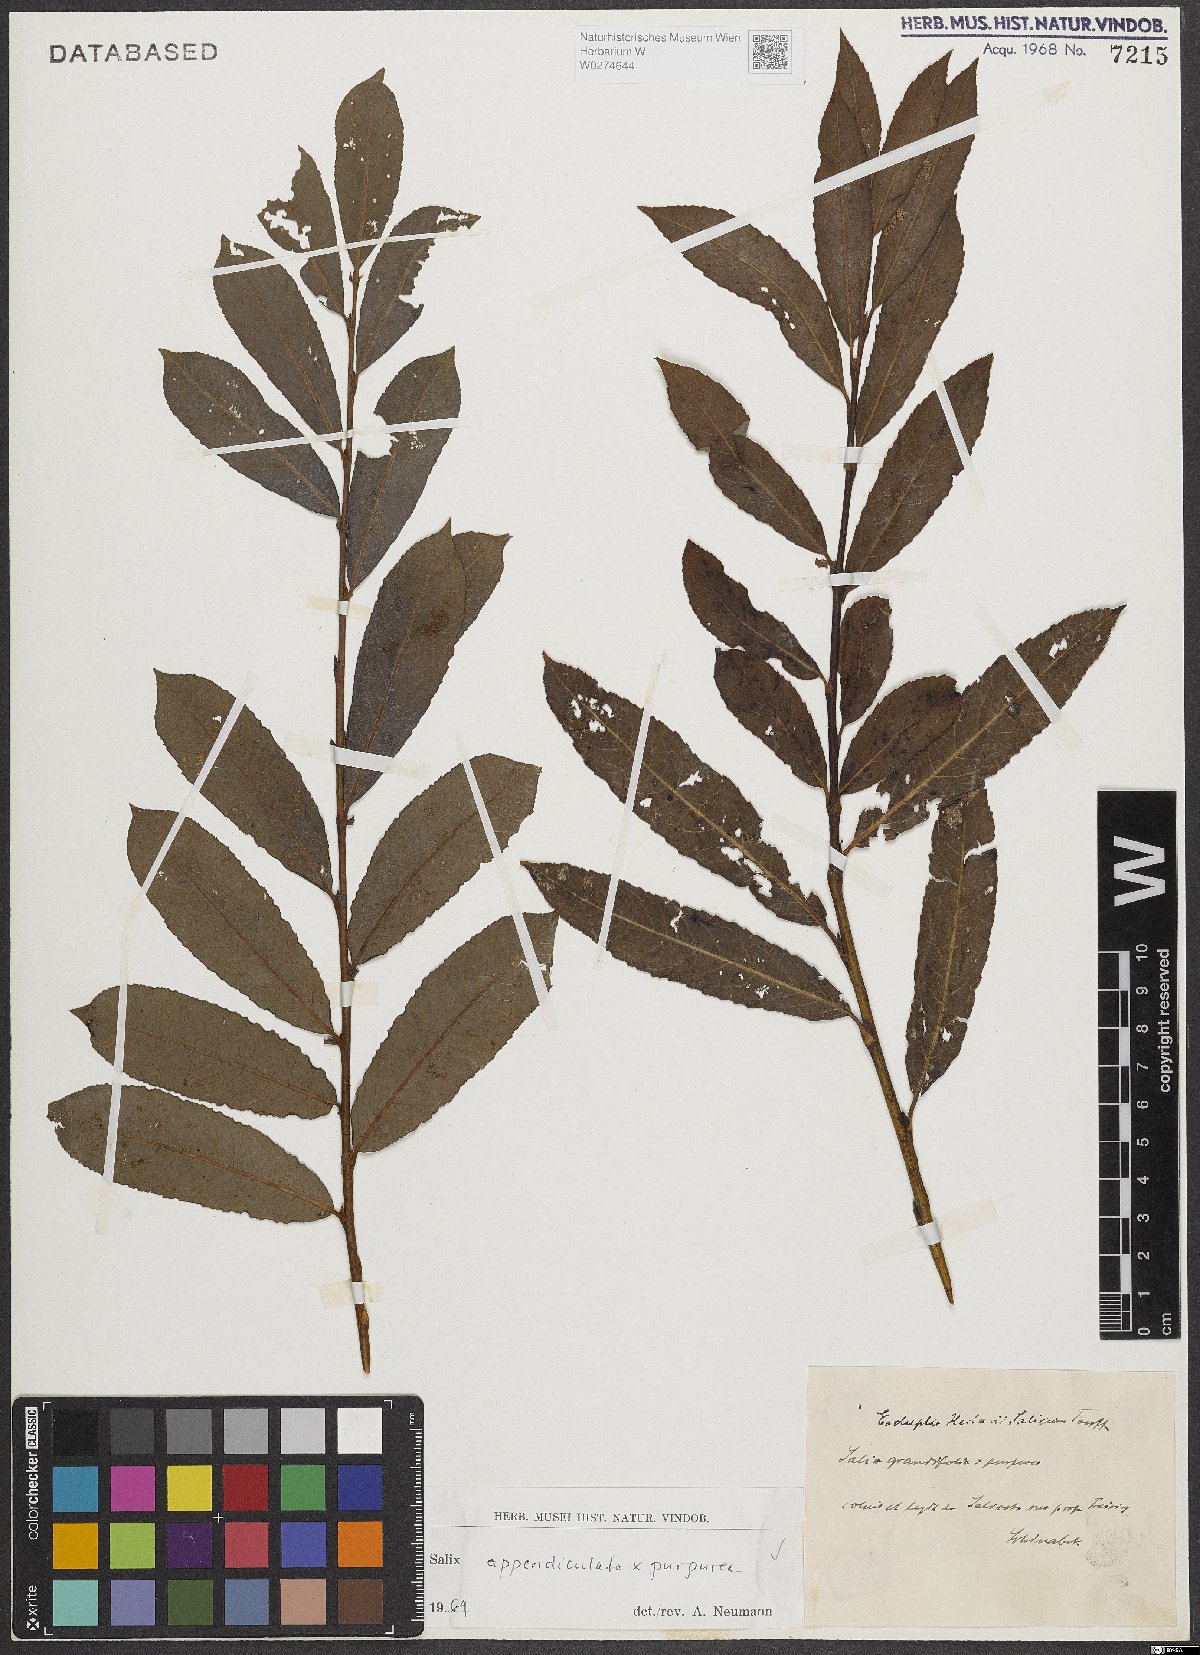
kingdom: Plantae
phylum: Tracheophyta
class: Magnoliopsida
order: Malpighiales
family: Salicaceae
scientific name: Salicaceae
